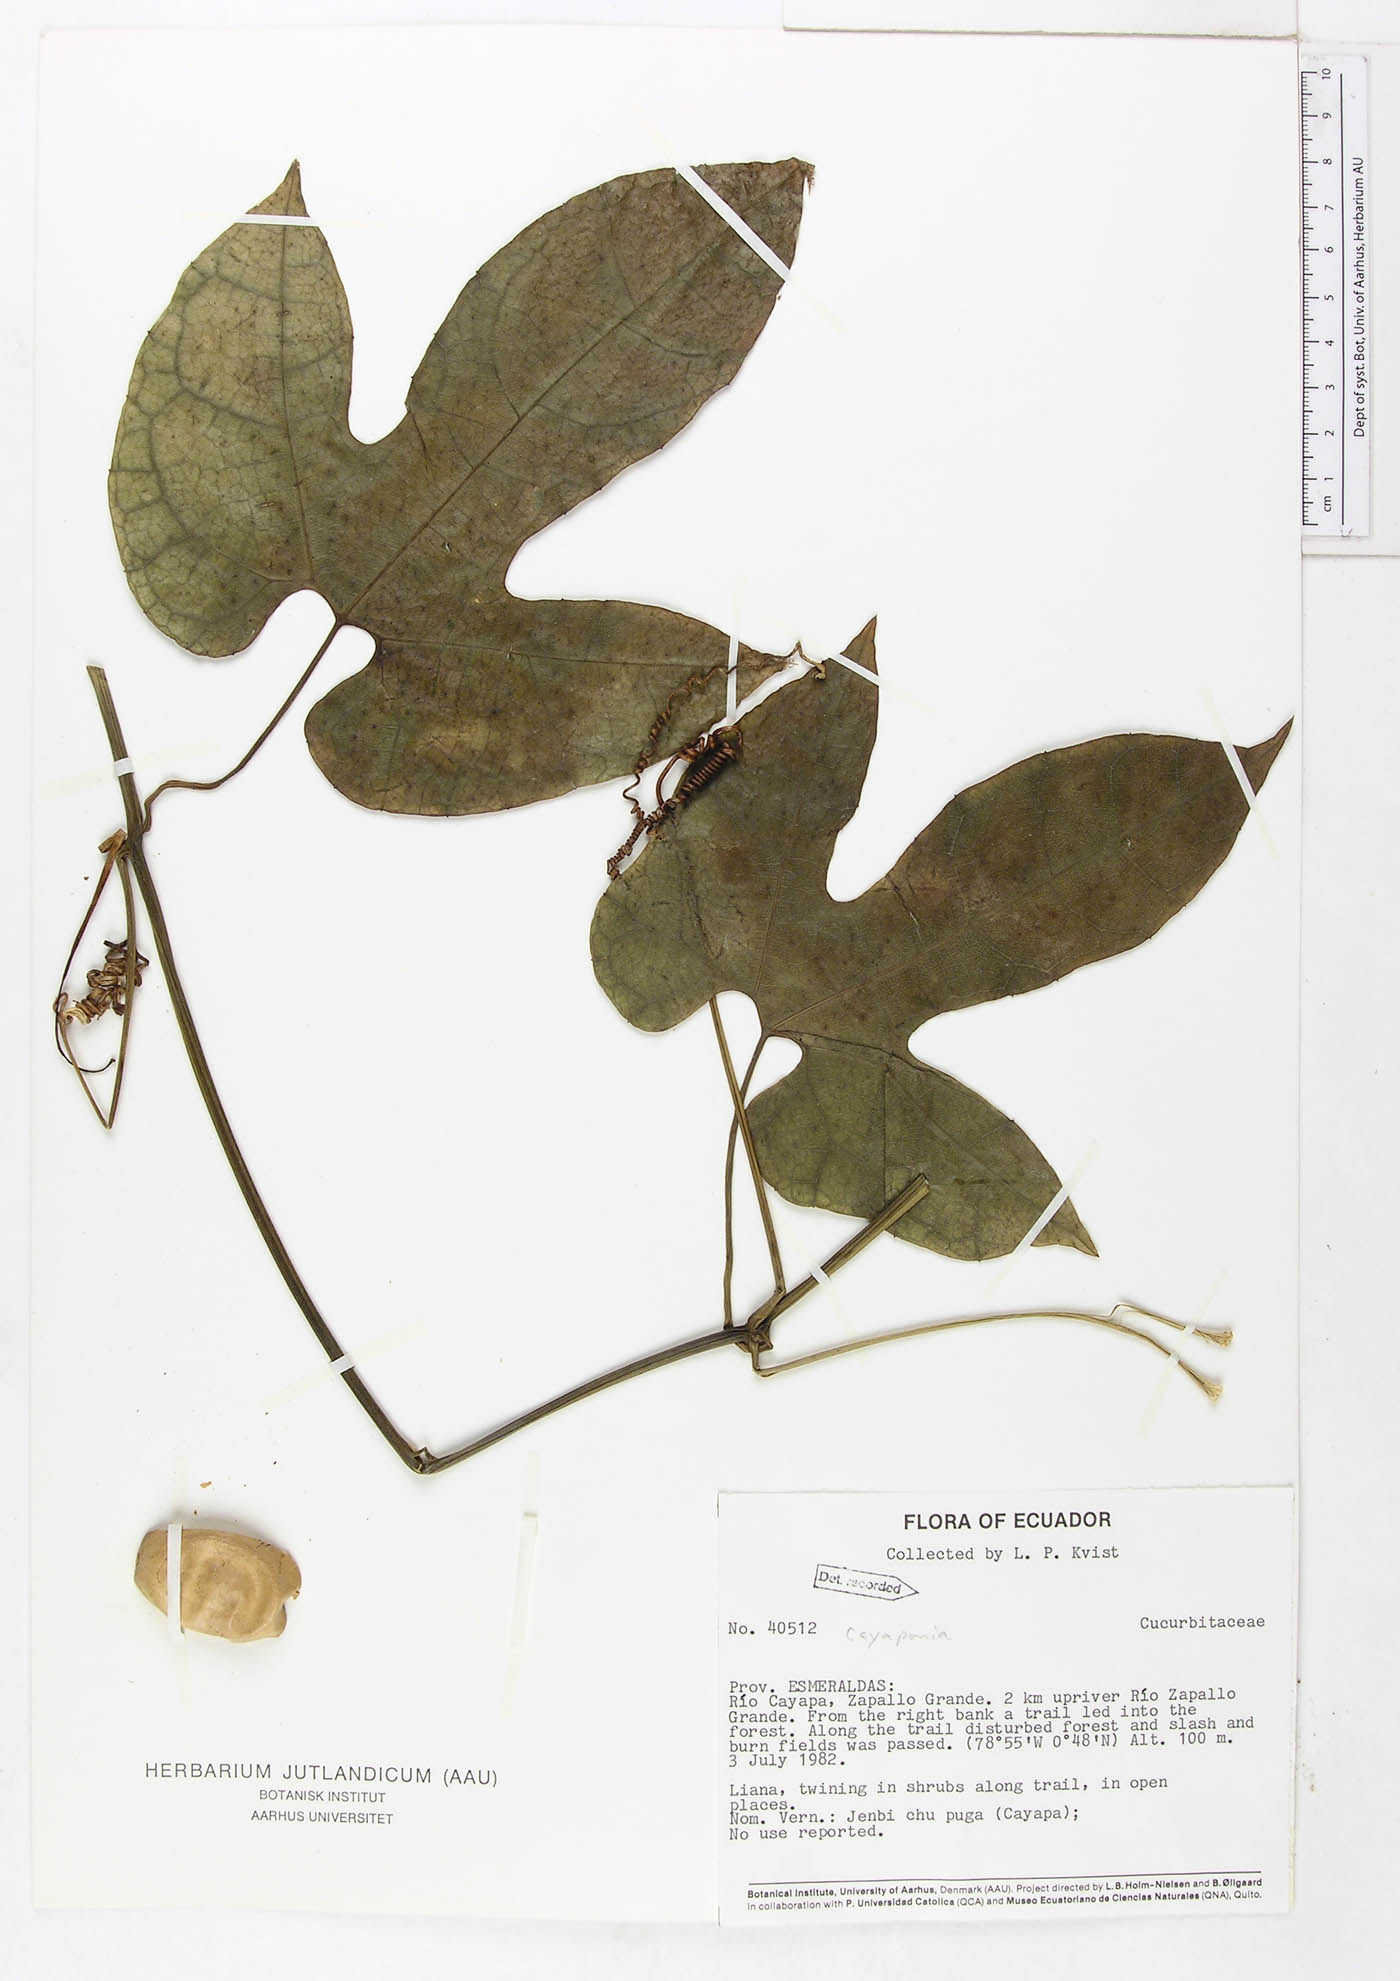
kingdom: Plantae
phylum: Tracheophyta
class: Magnoliopsida
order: Cucurbitales
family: Cucurbitaceae
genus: Cayaponia
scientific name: Cayaponia prunifera
